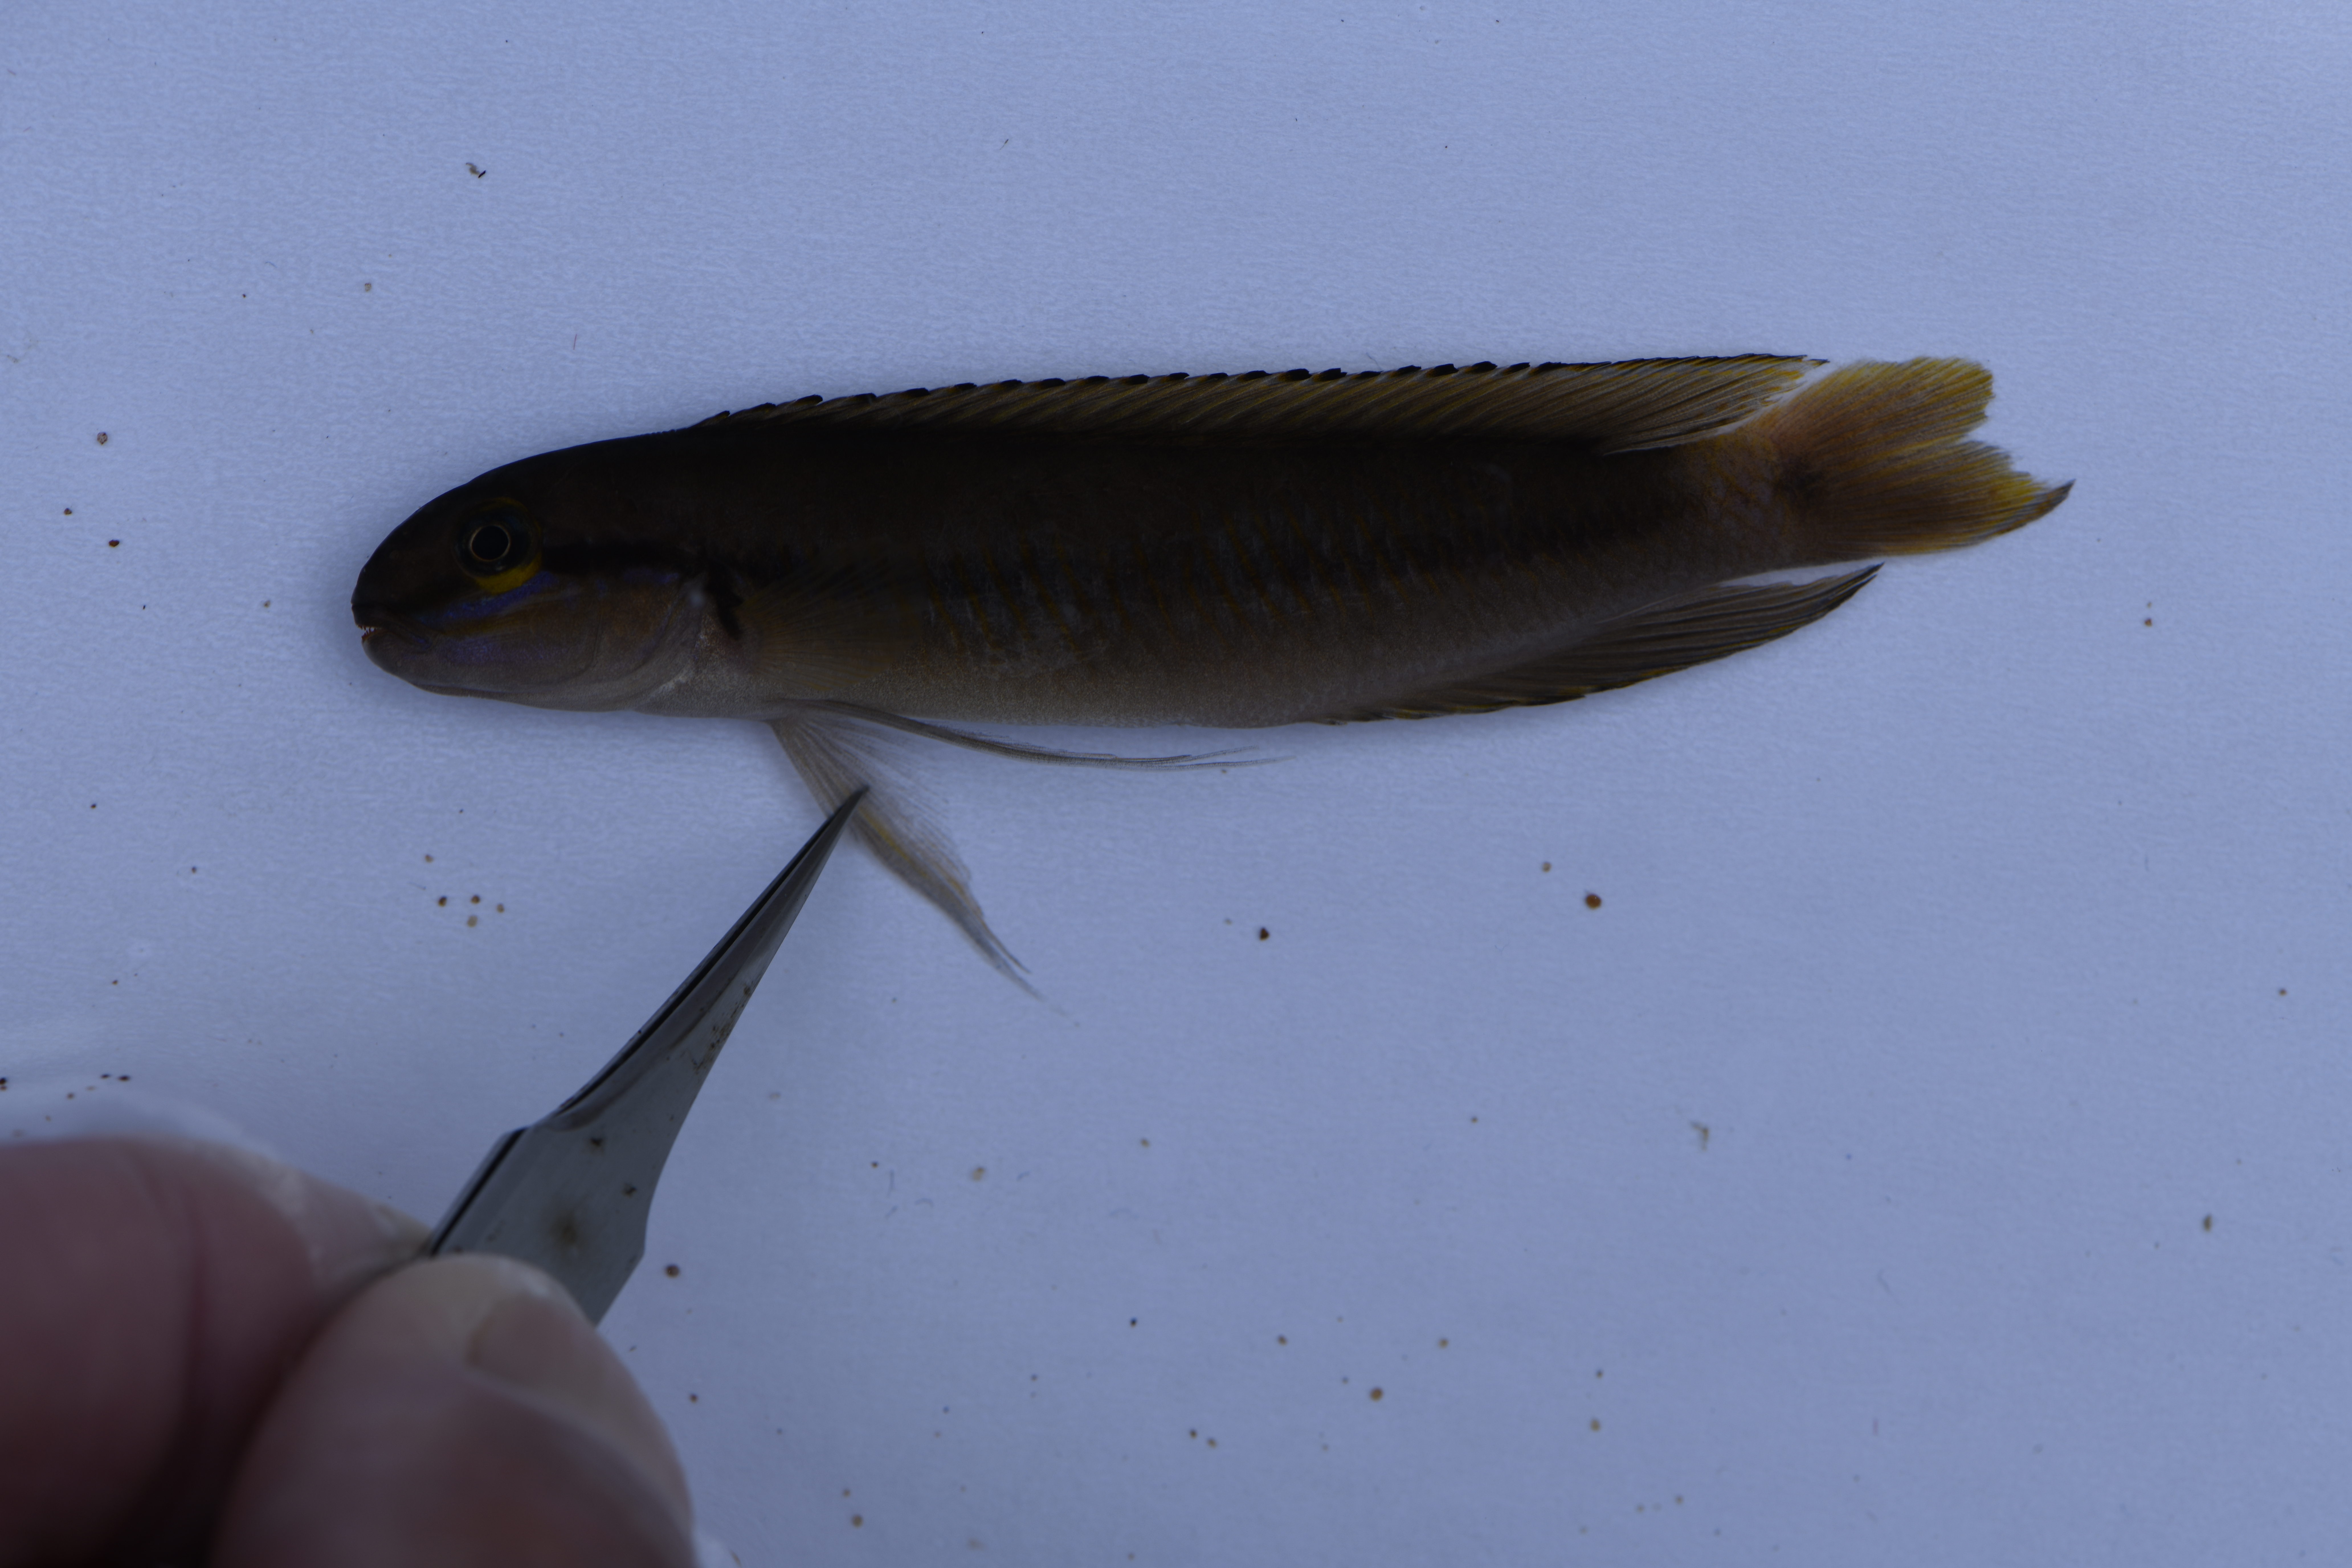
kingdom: Animalia
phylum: Chordata
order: Perciformes
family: Cichlidae
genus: Telmatochromis
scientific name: Telmatochromis vittatus
